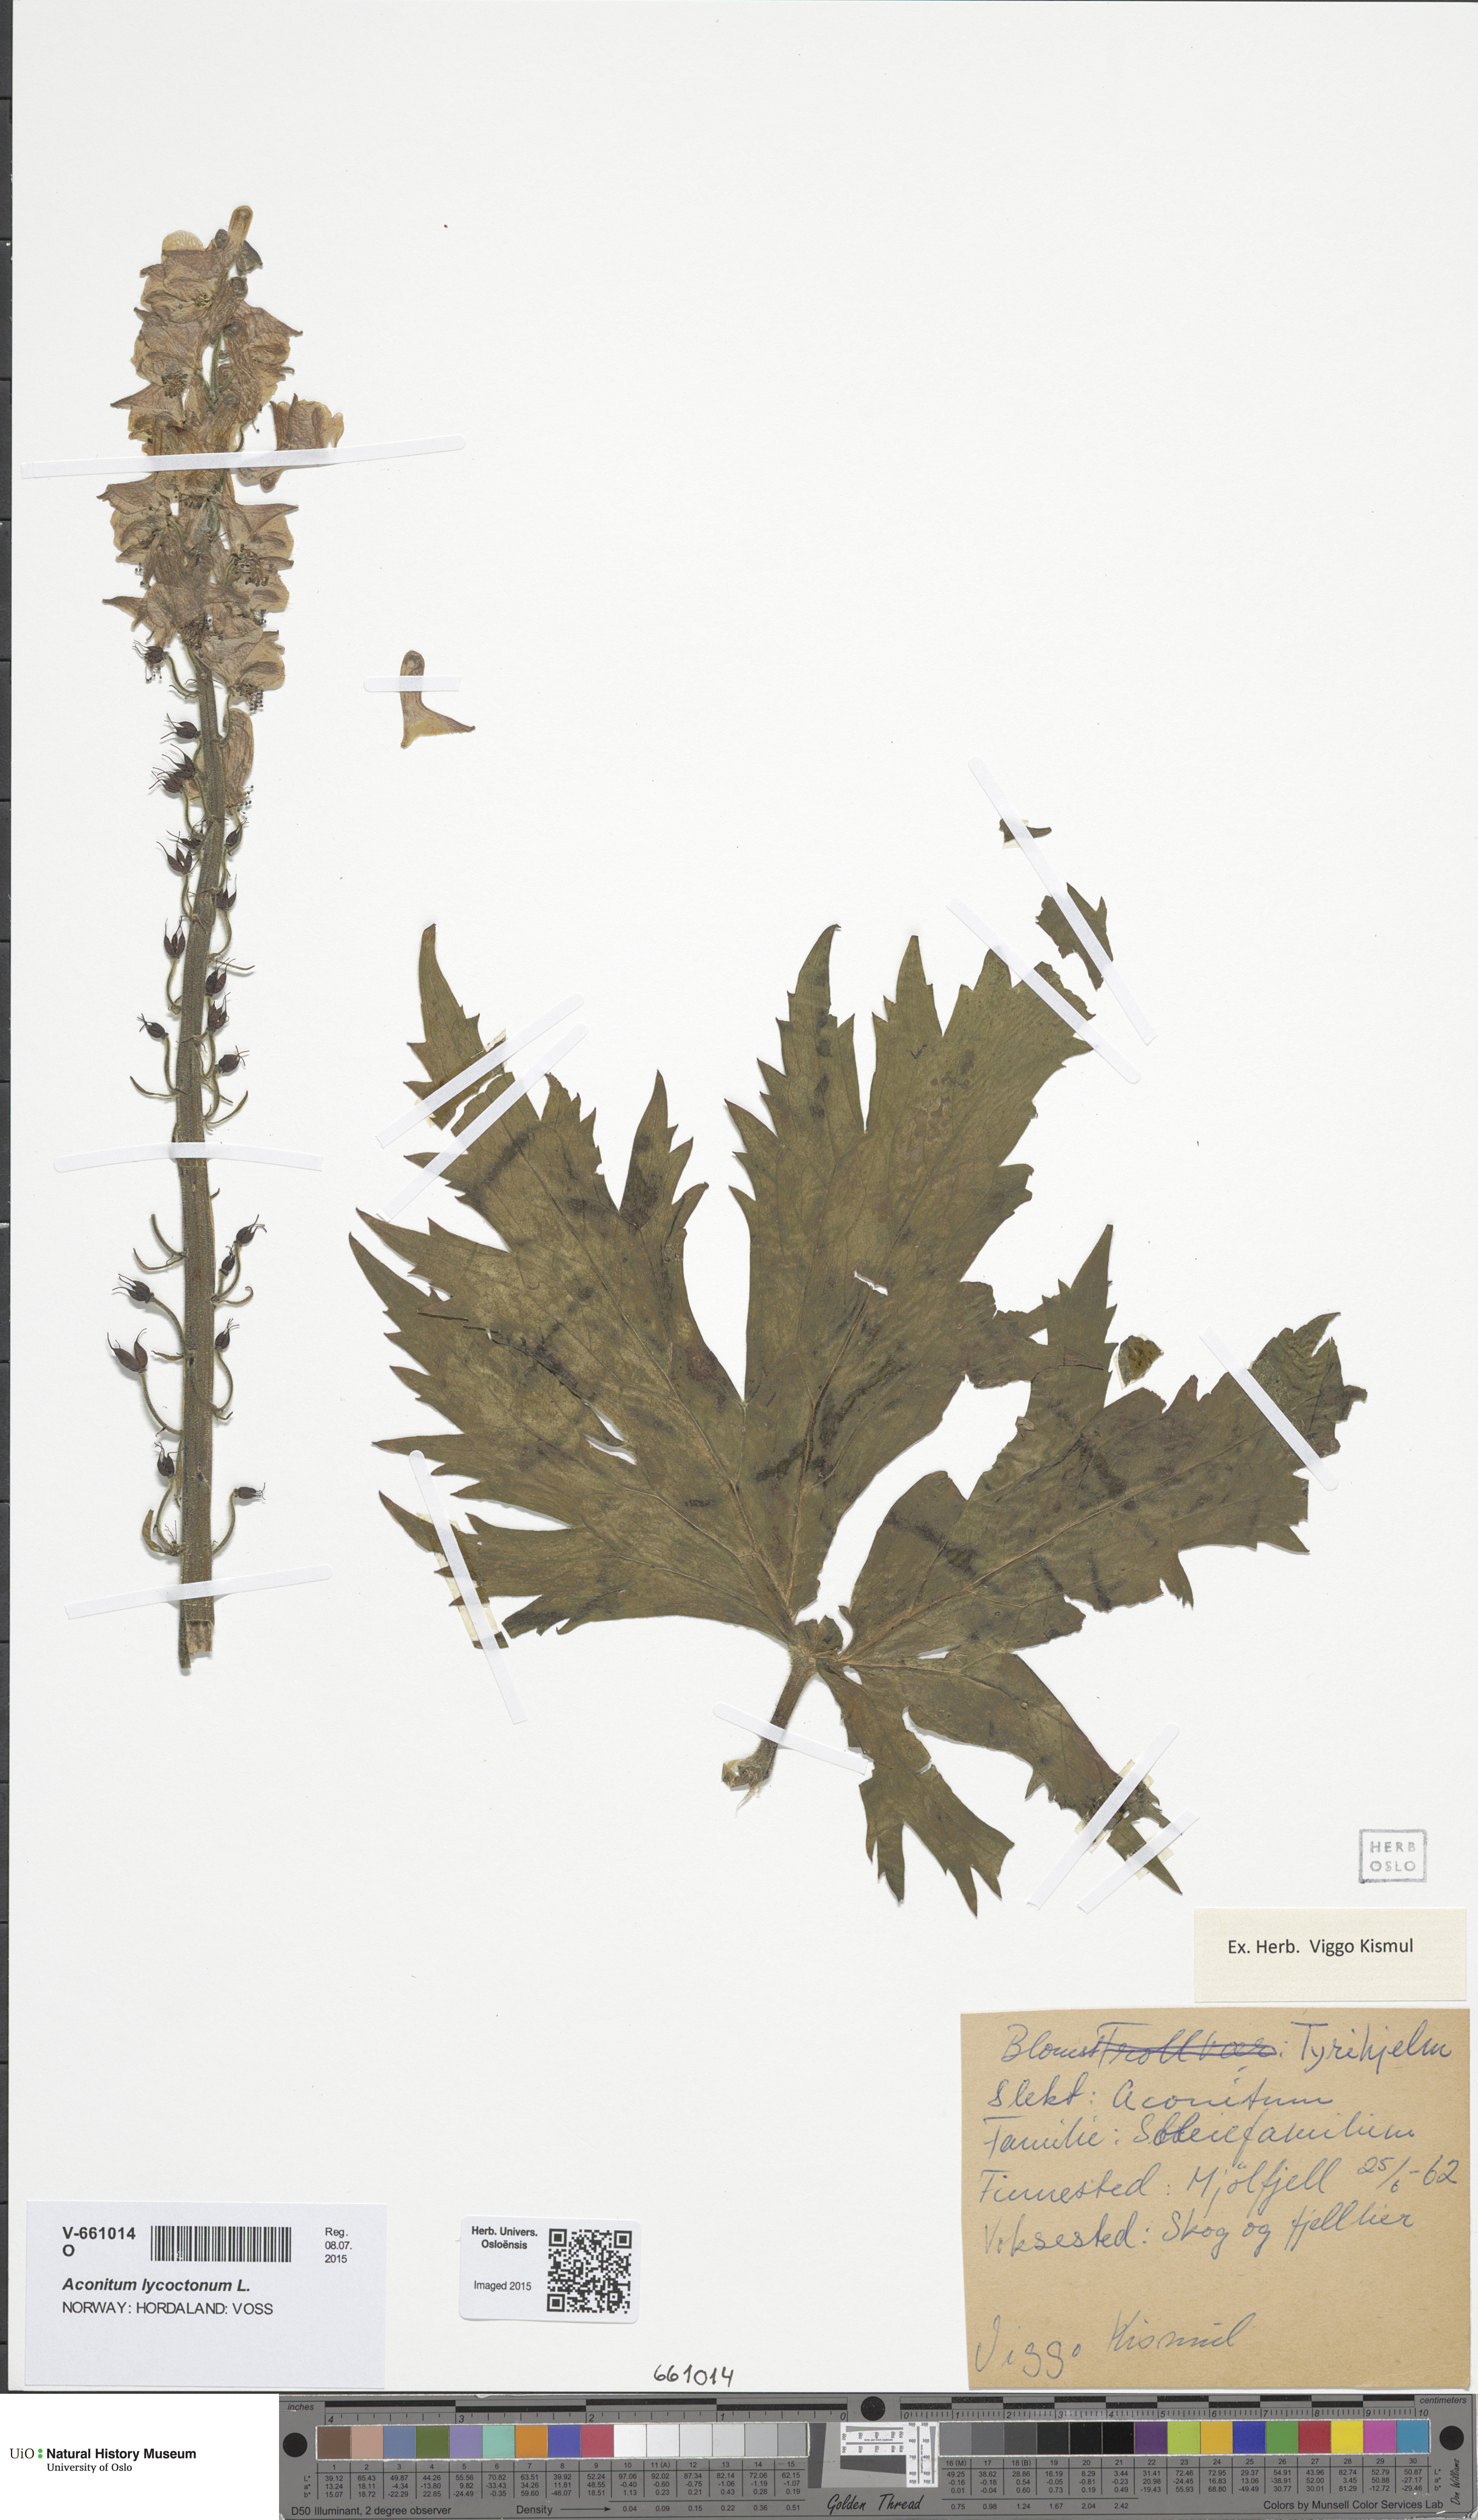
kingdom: Plantae
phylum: Tracheophyta
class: Magnoliopsida
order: Ranunculales
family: Ranunculaceae
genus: Aconitum
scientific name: Aconitum septentrionale
